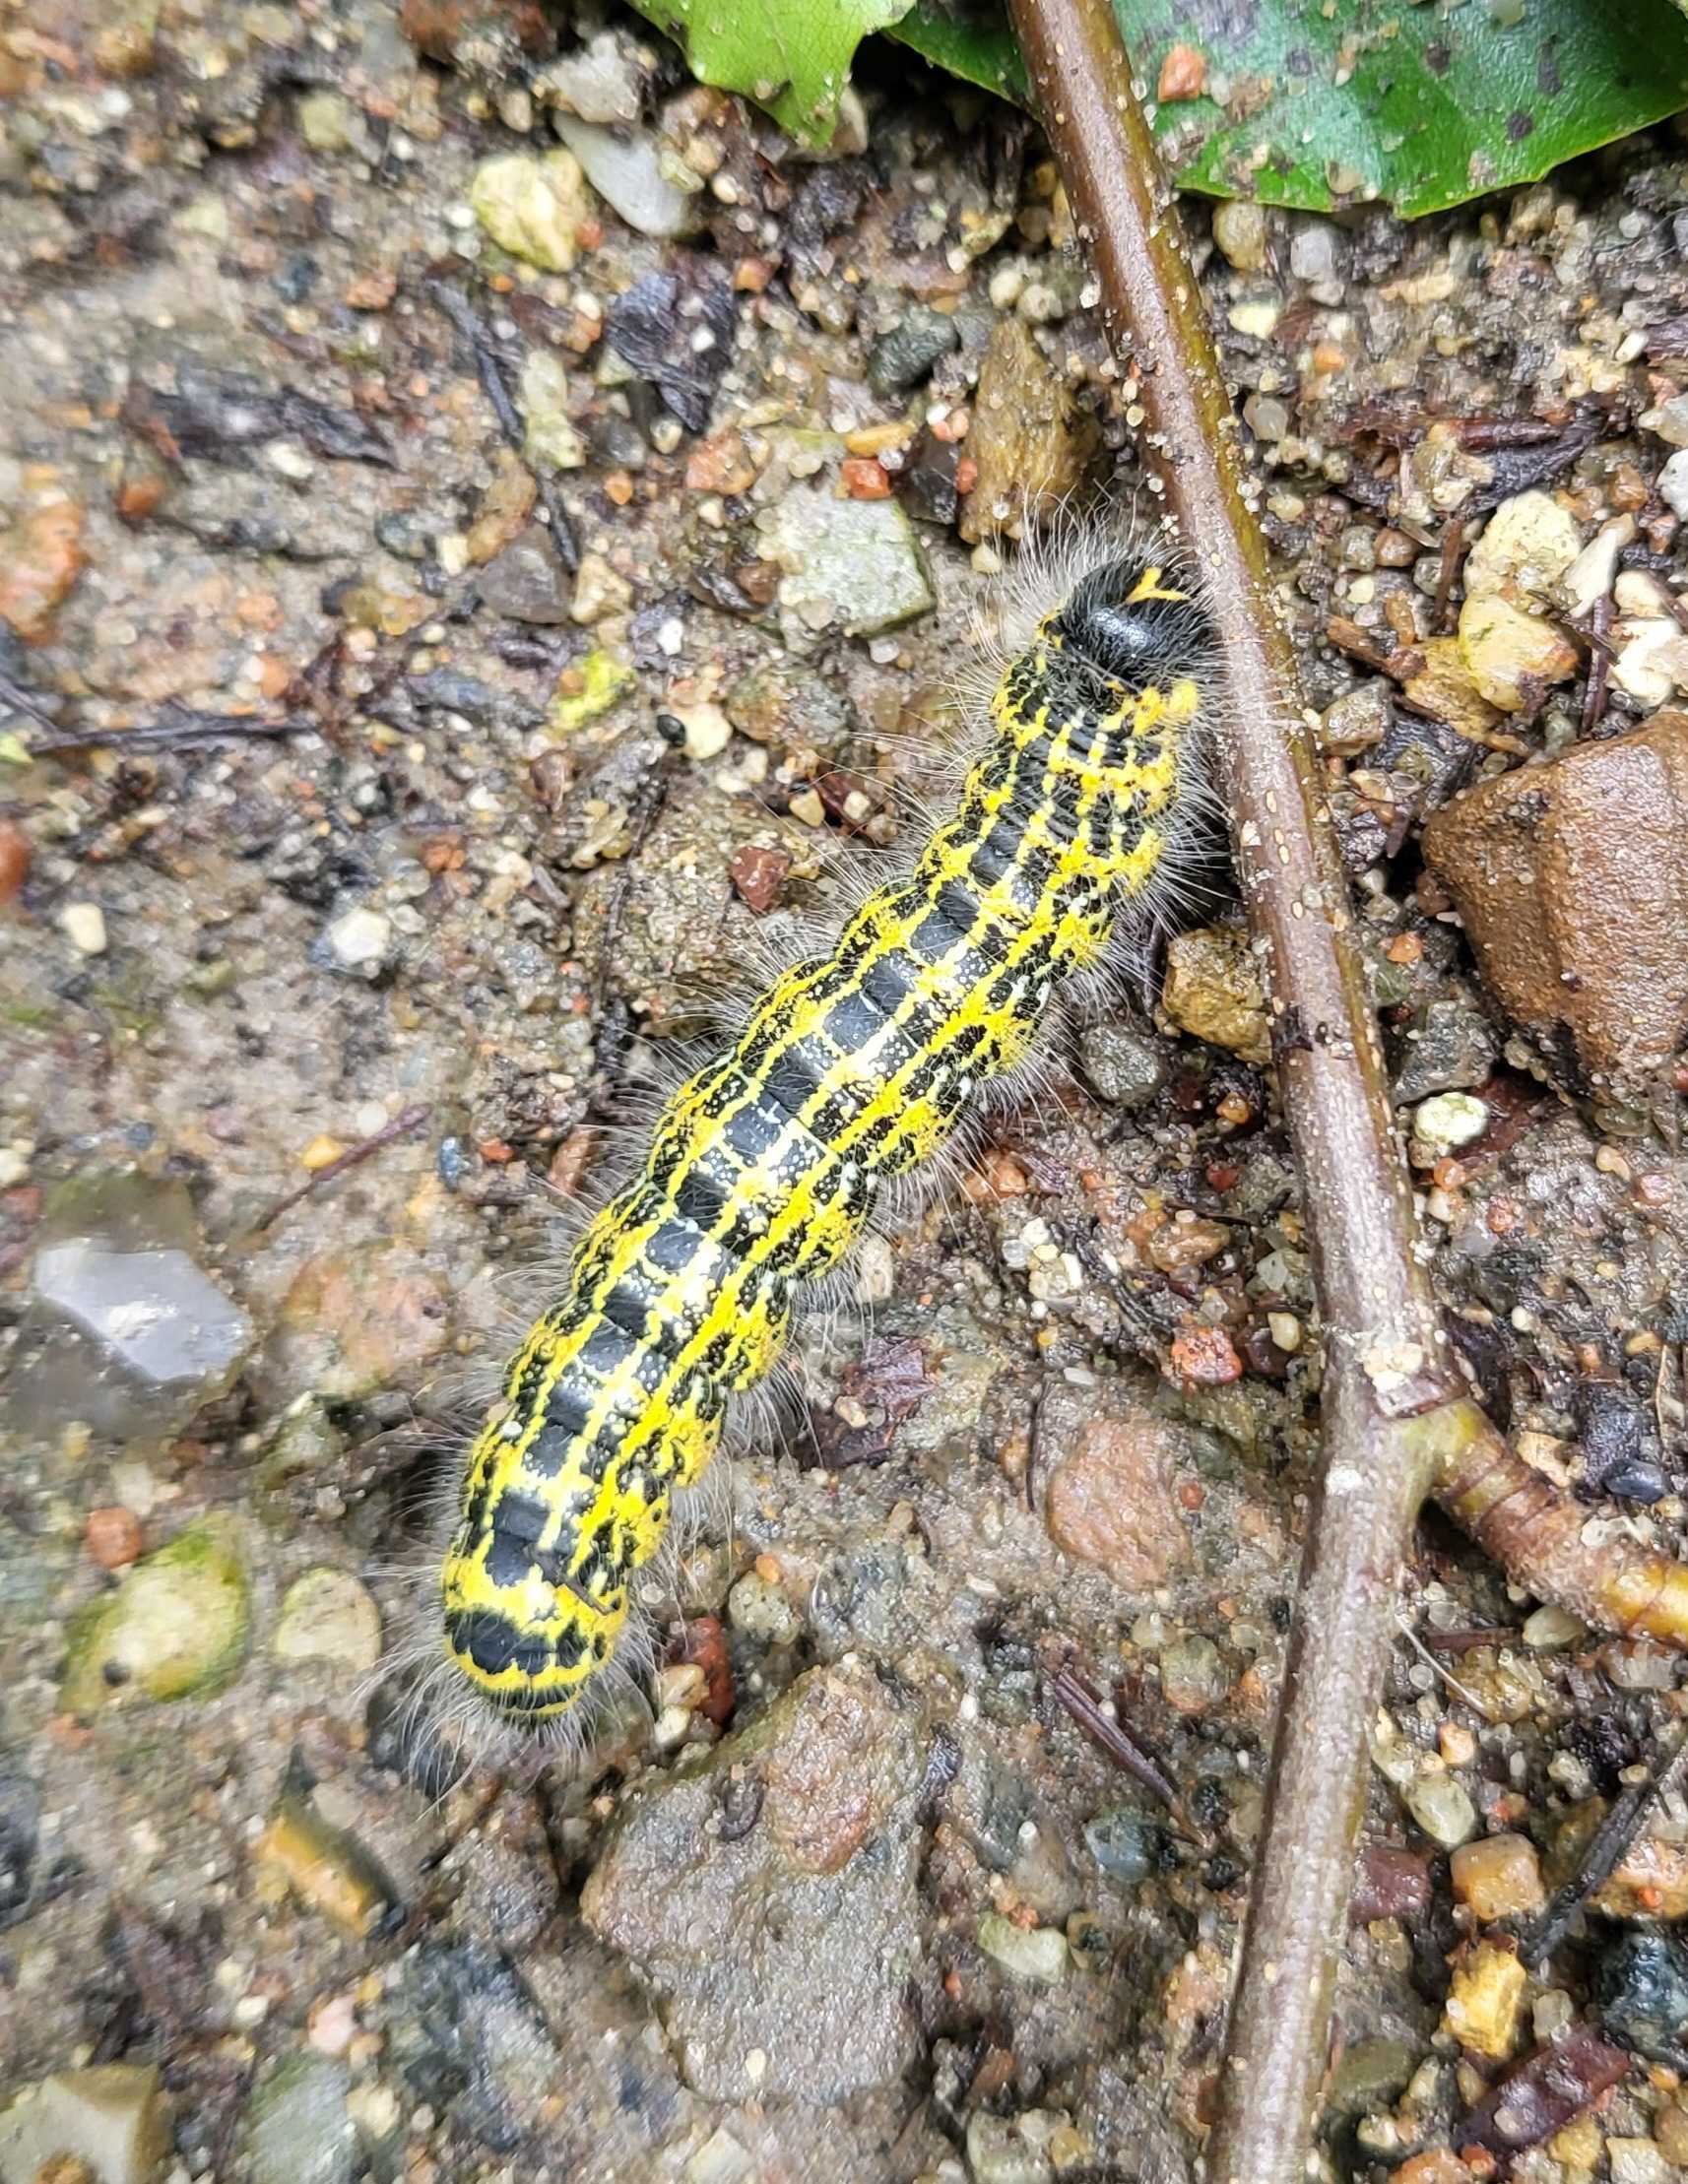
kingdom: Animalia
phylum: Arthropoda
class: Insecta
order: Lepidoptera
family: Notodontidae
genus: Phalera
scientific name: Phalera bucephala
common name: Måneplet
